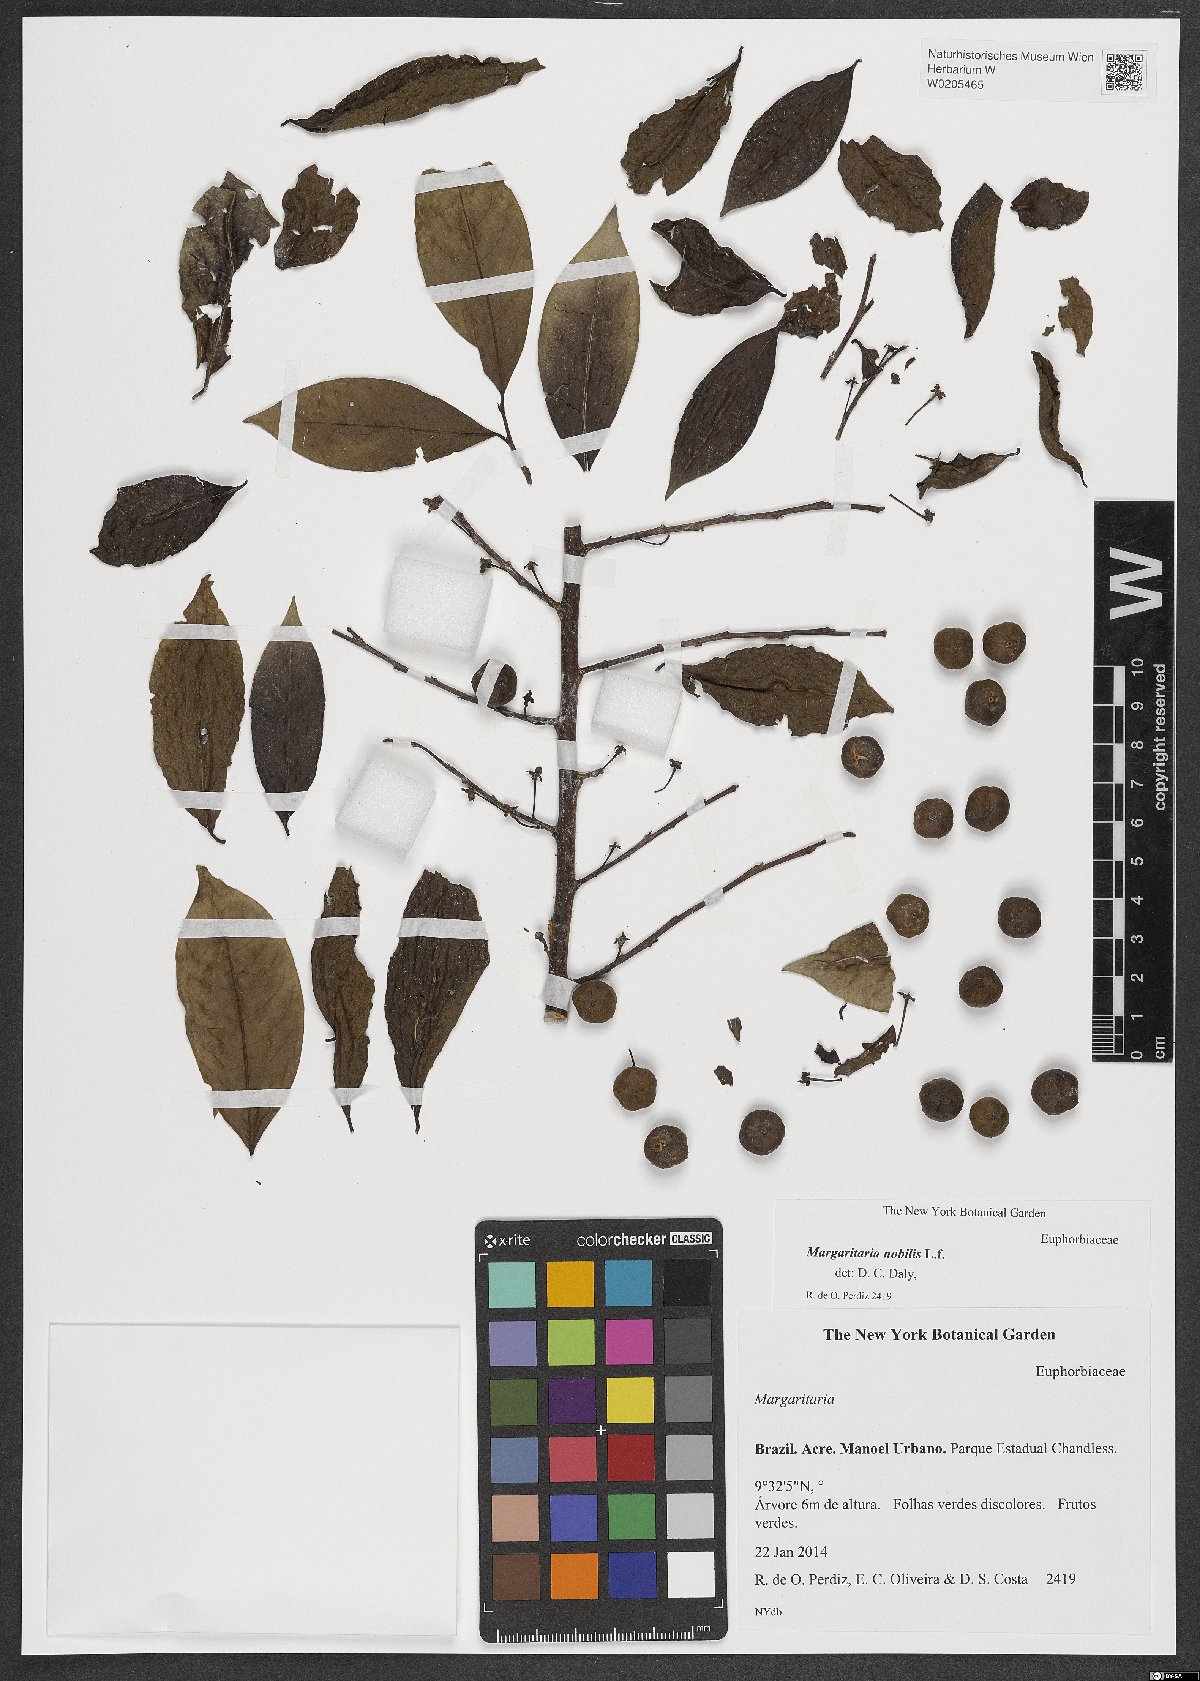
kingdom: Plantae
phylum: Tracheophyta
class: Magnoliopsida
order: Malpighiales
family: Phyllanthaceae
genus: Margaritaria
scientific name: Margaritaria nobilis
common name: Goose berry
